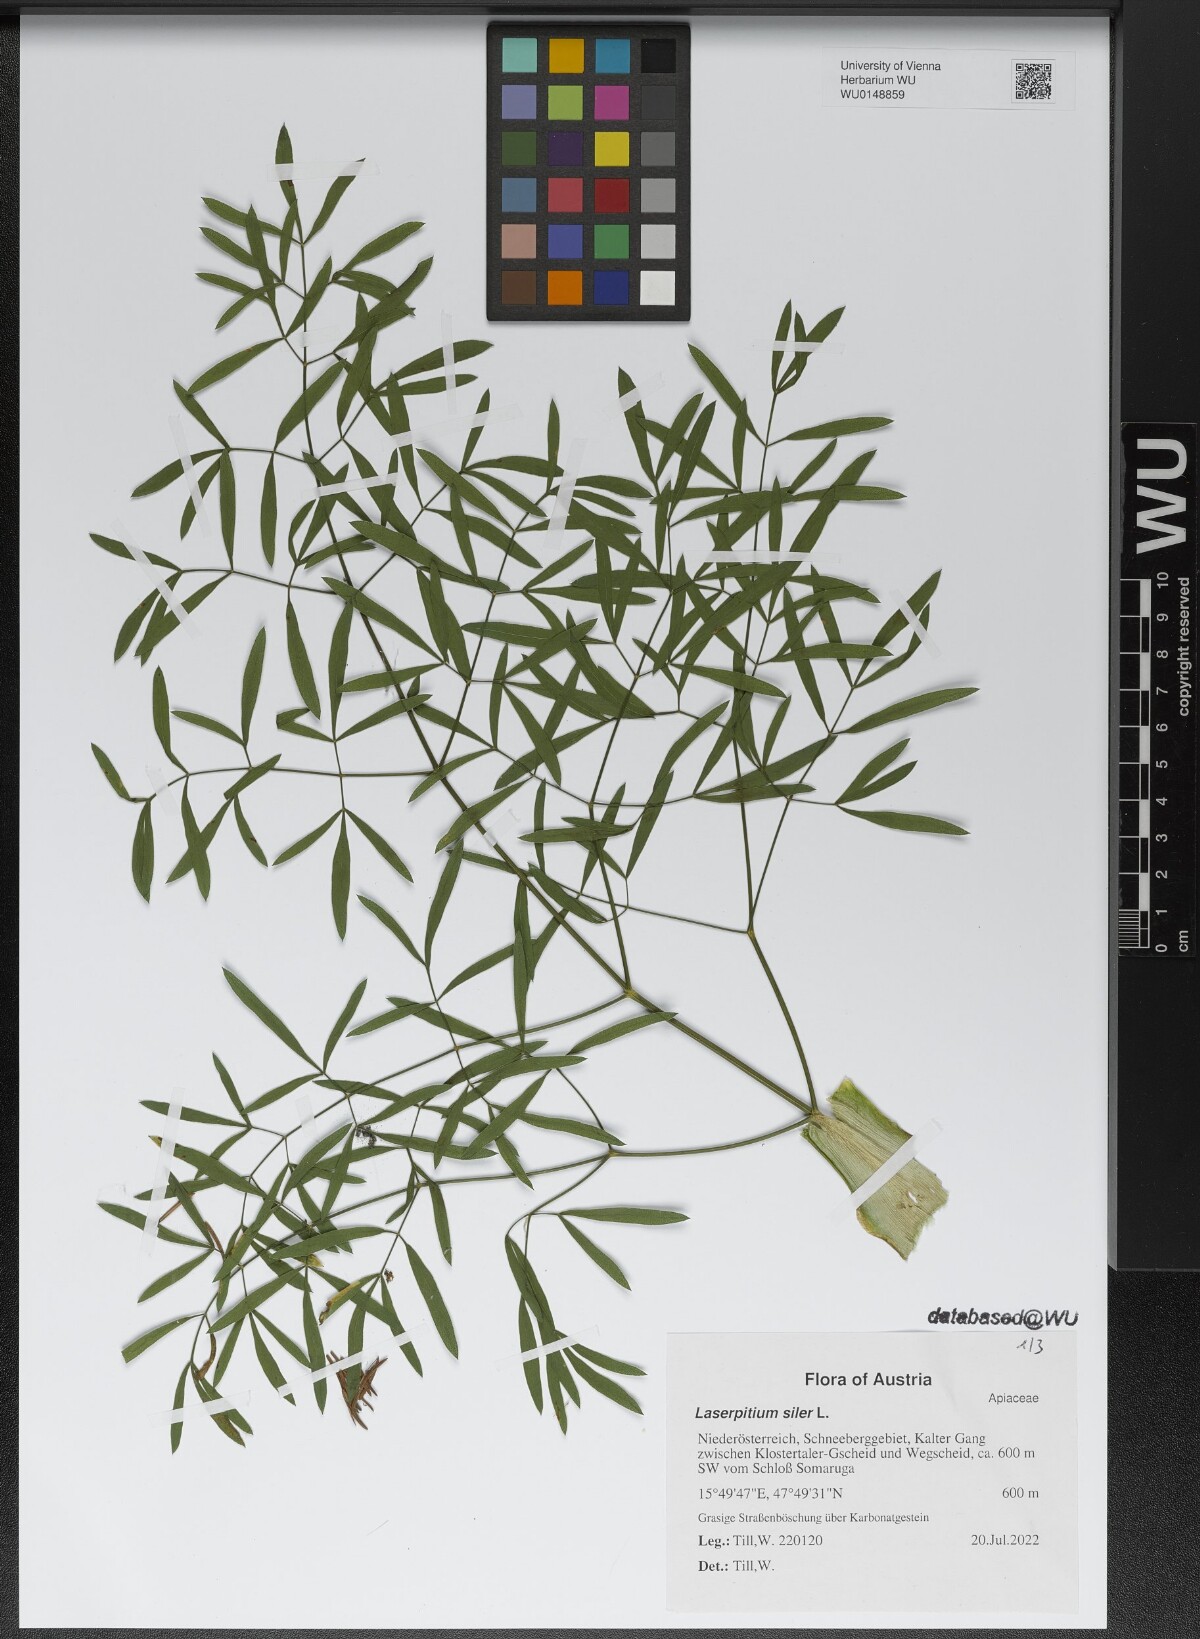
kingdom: Plantae
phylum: Tracheophyta
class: Magnoliopsida
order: Apiales
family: Apiaceae
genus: Siler
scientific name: Siler montanum
